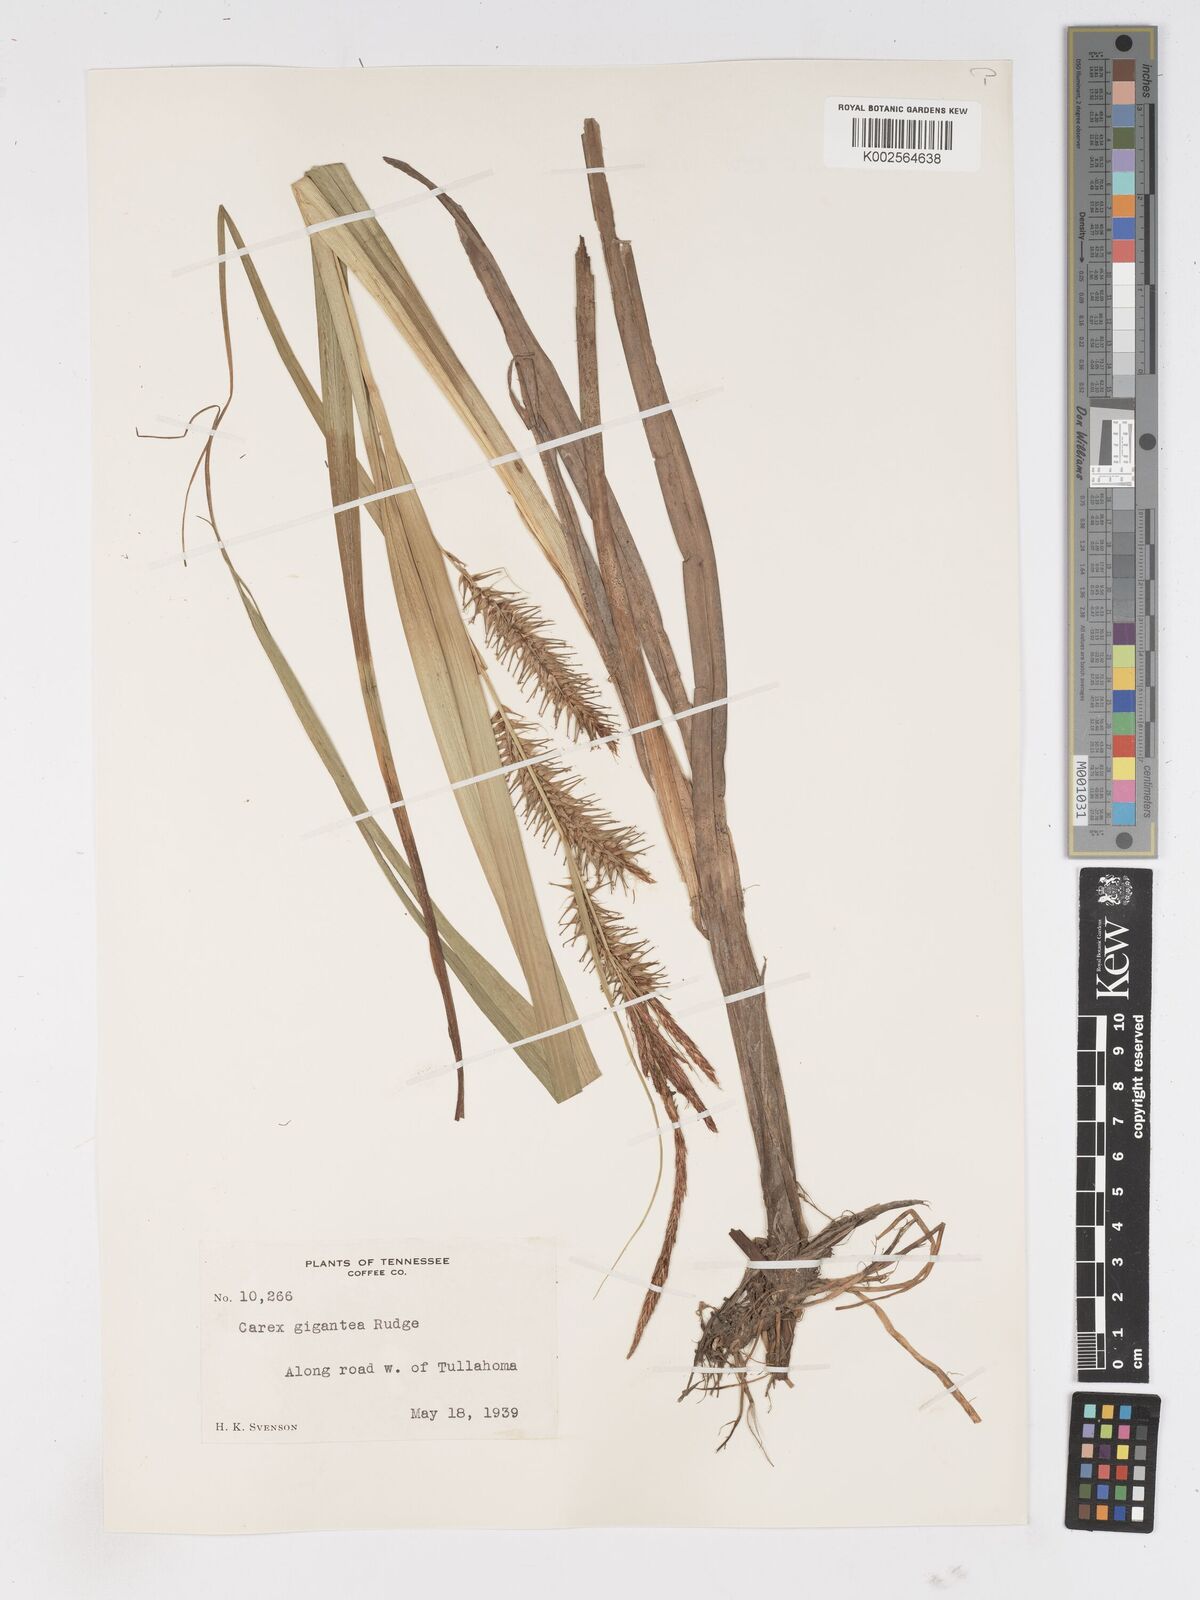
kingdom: Plantae
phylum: Tracheophyta
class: Liliopsida
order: Poales
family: Cyperaceae
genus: Carex
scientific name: Carex gigantea
